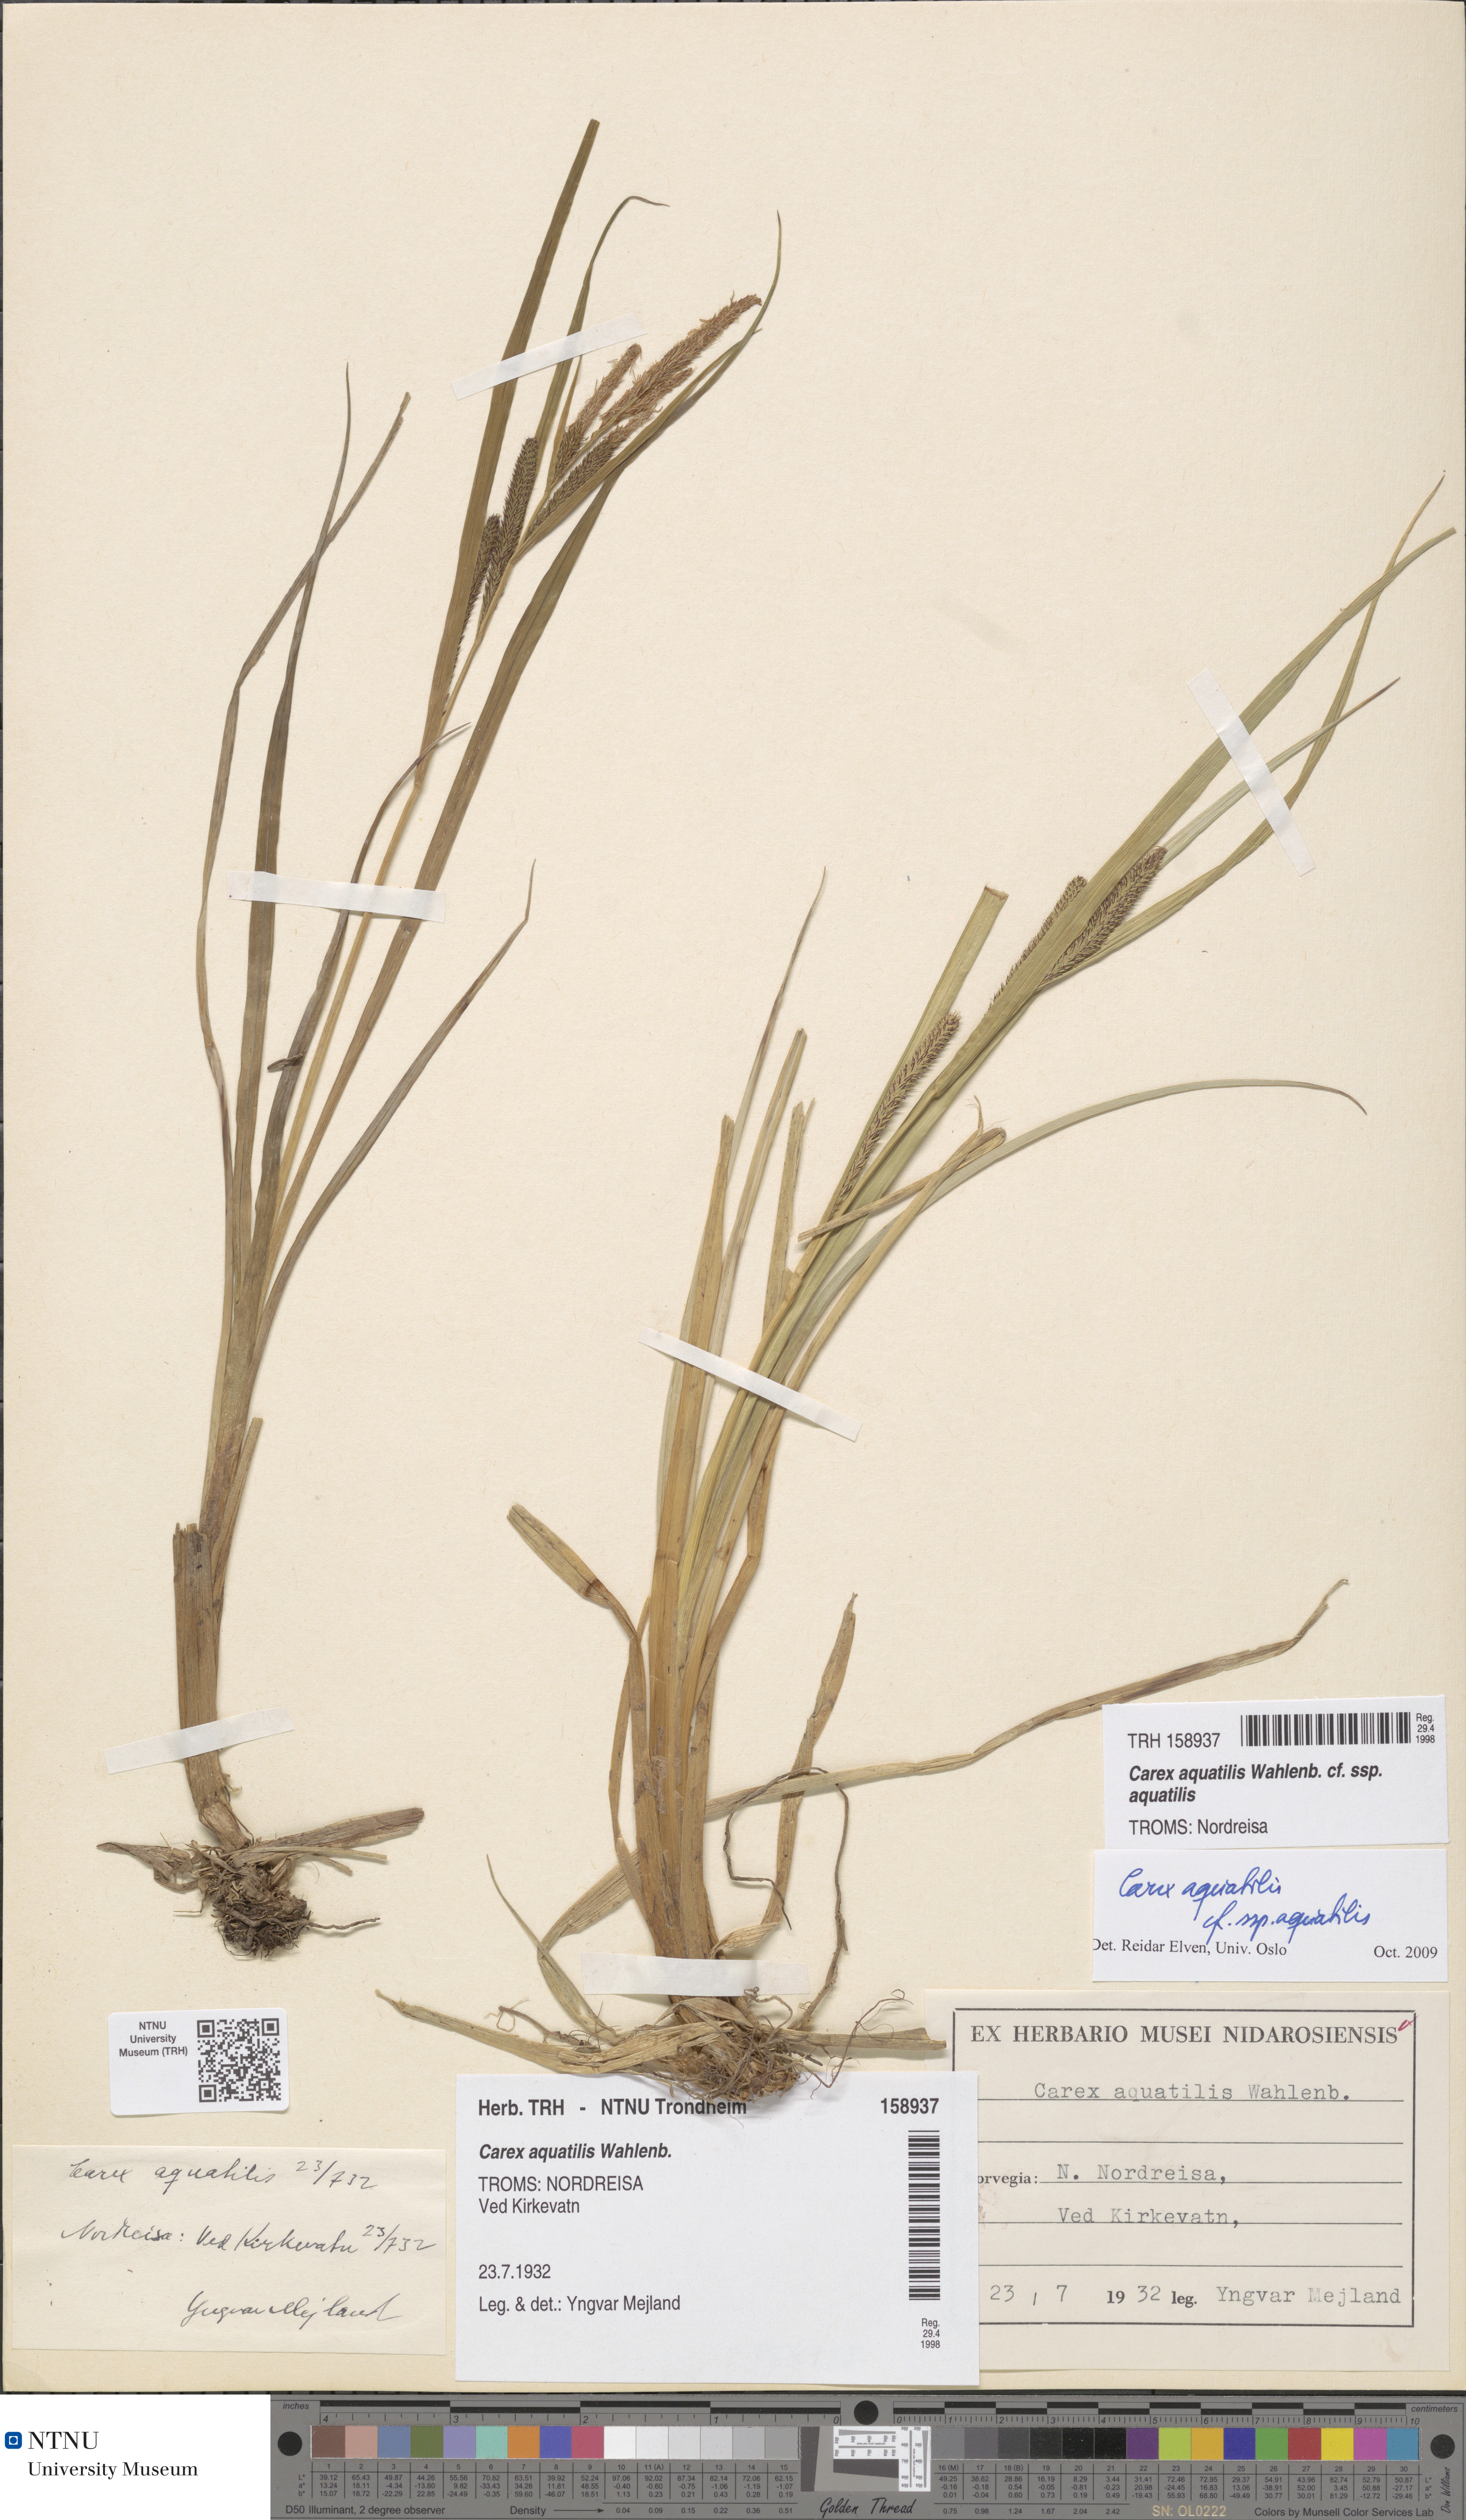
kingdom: Plantae
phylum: Tracheophyta
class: Liliopsida
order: Poales
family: Cyperaceae
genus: Carex
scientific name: Carex aquatilis
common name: Water sedge
